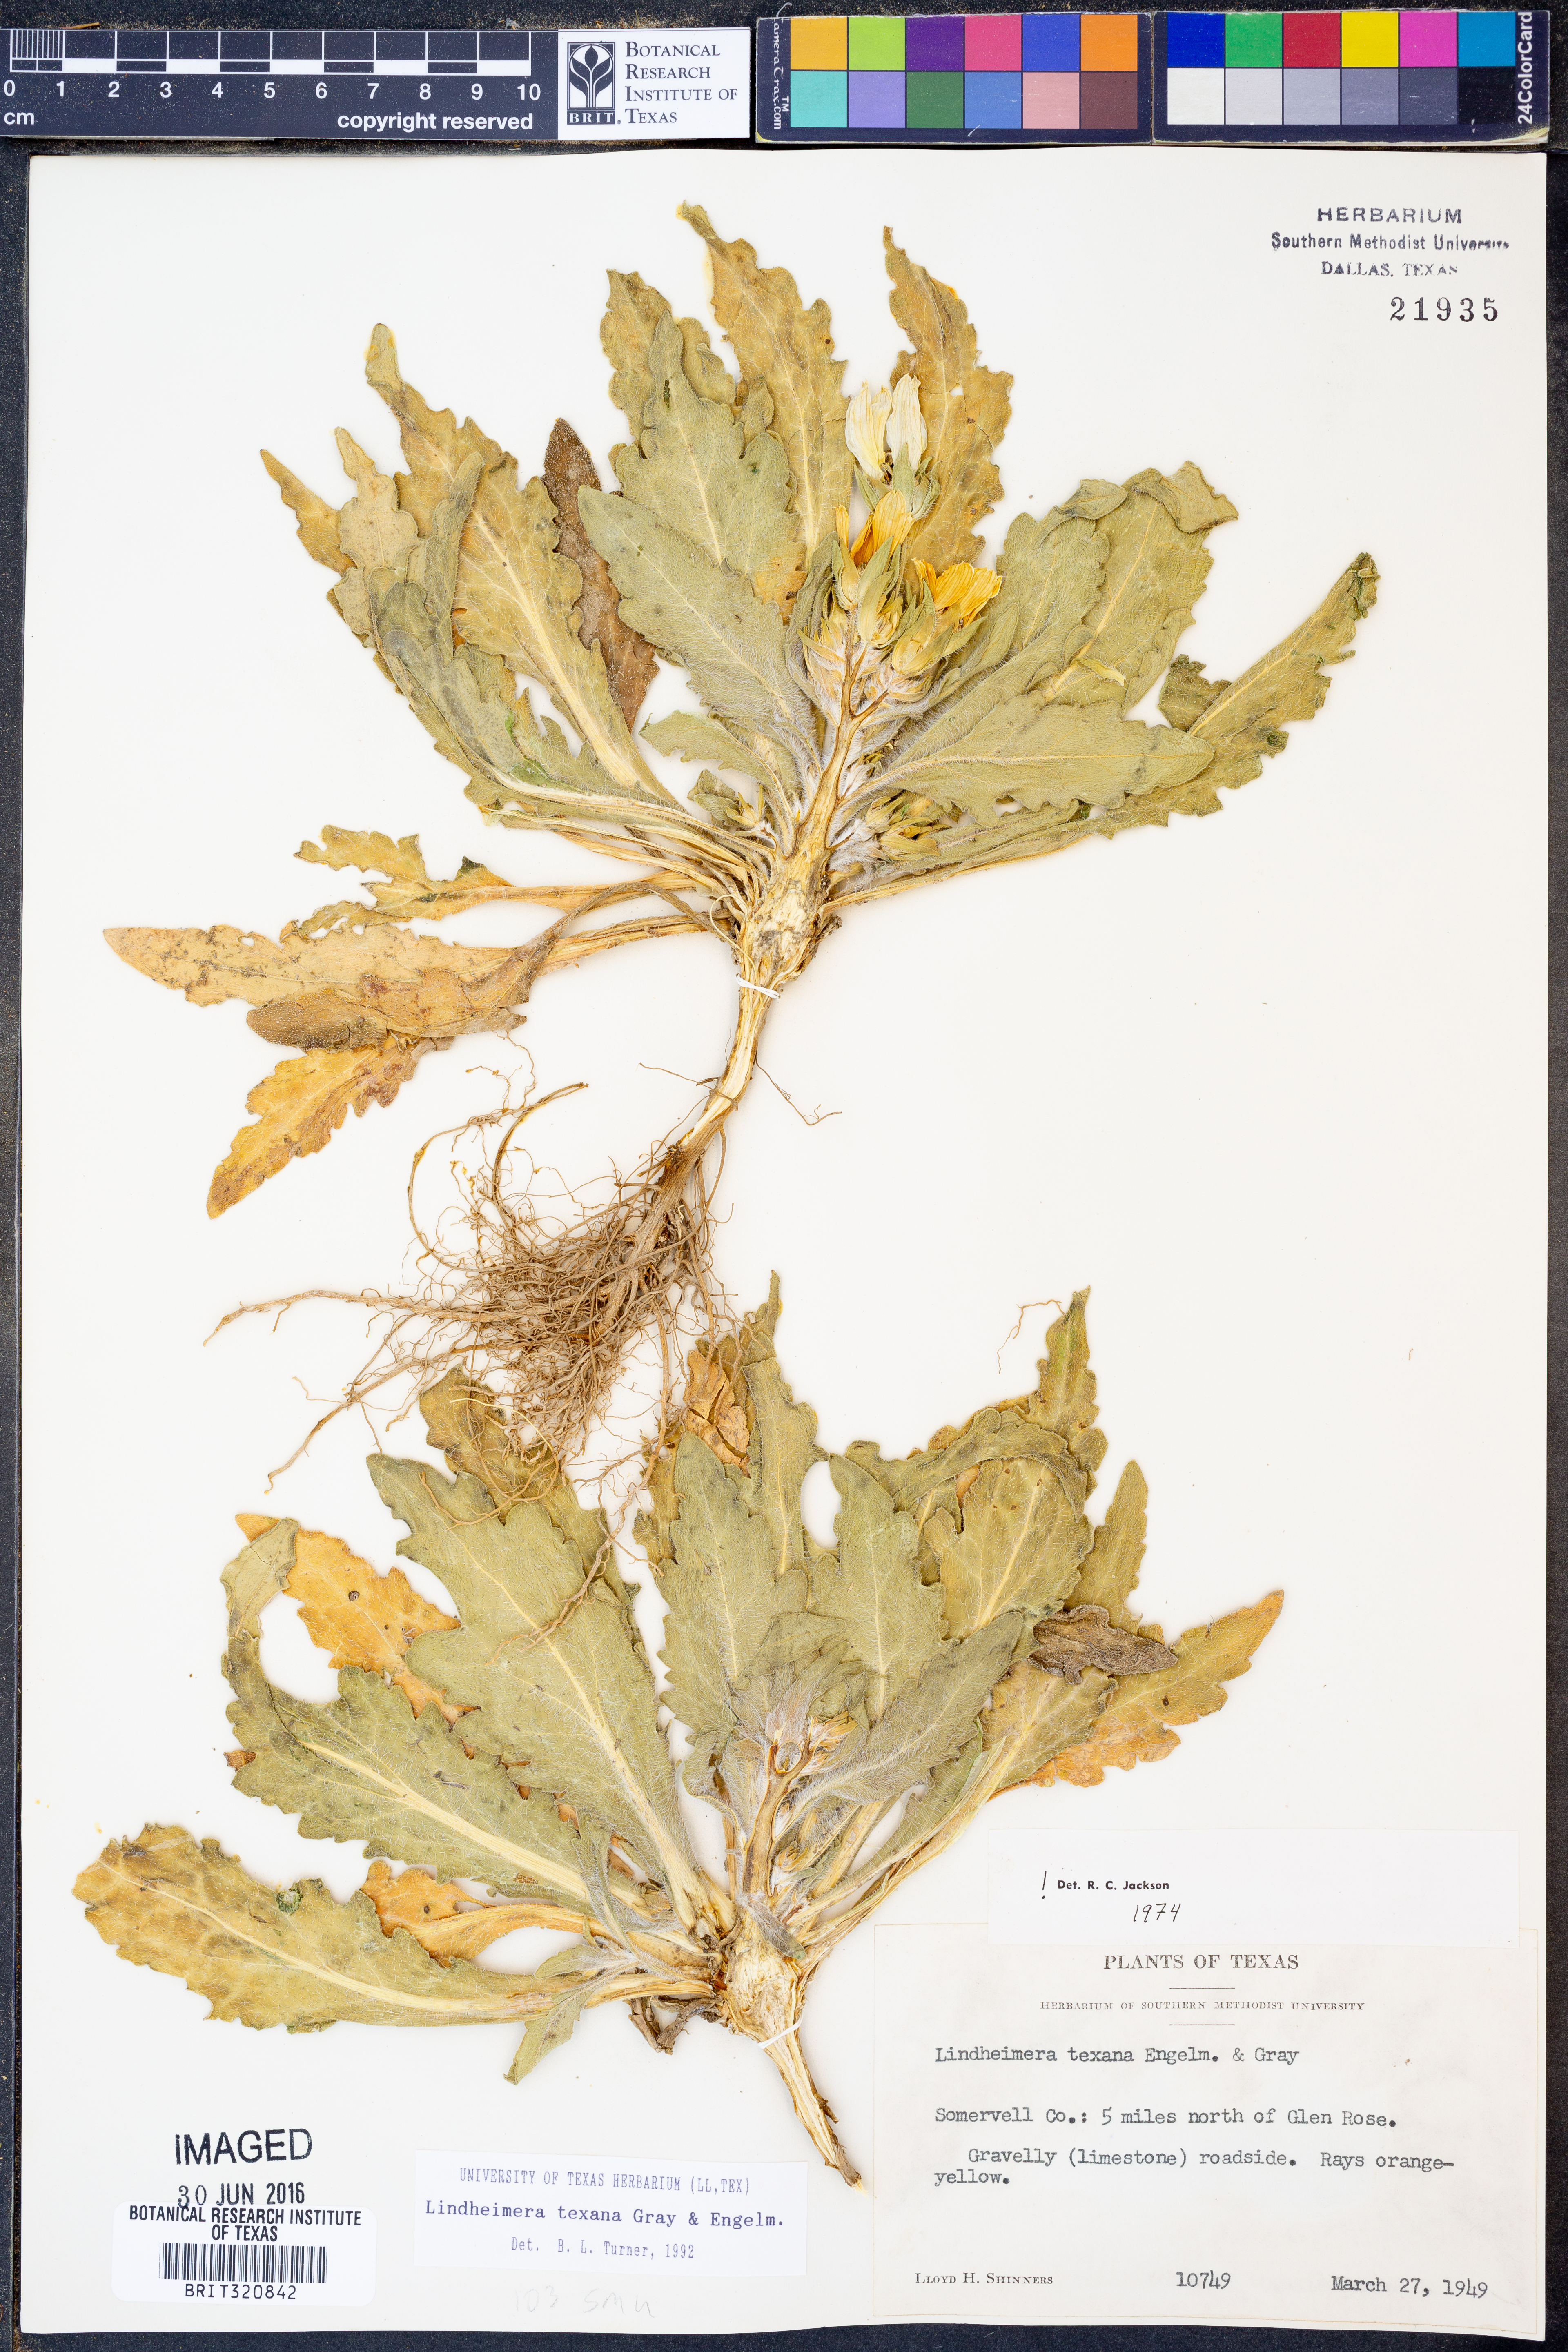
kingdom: Plantae
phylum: Tracheophyta
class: Magnoliopsida
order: Asterales
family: Asteraceae
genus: Lindheimera
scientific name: Lindheimera texana
